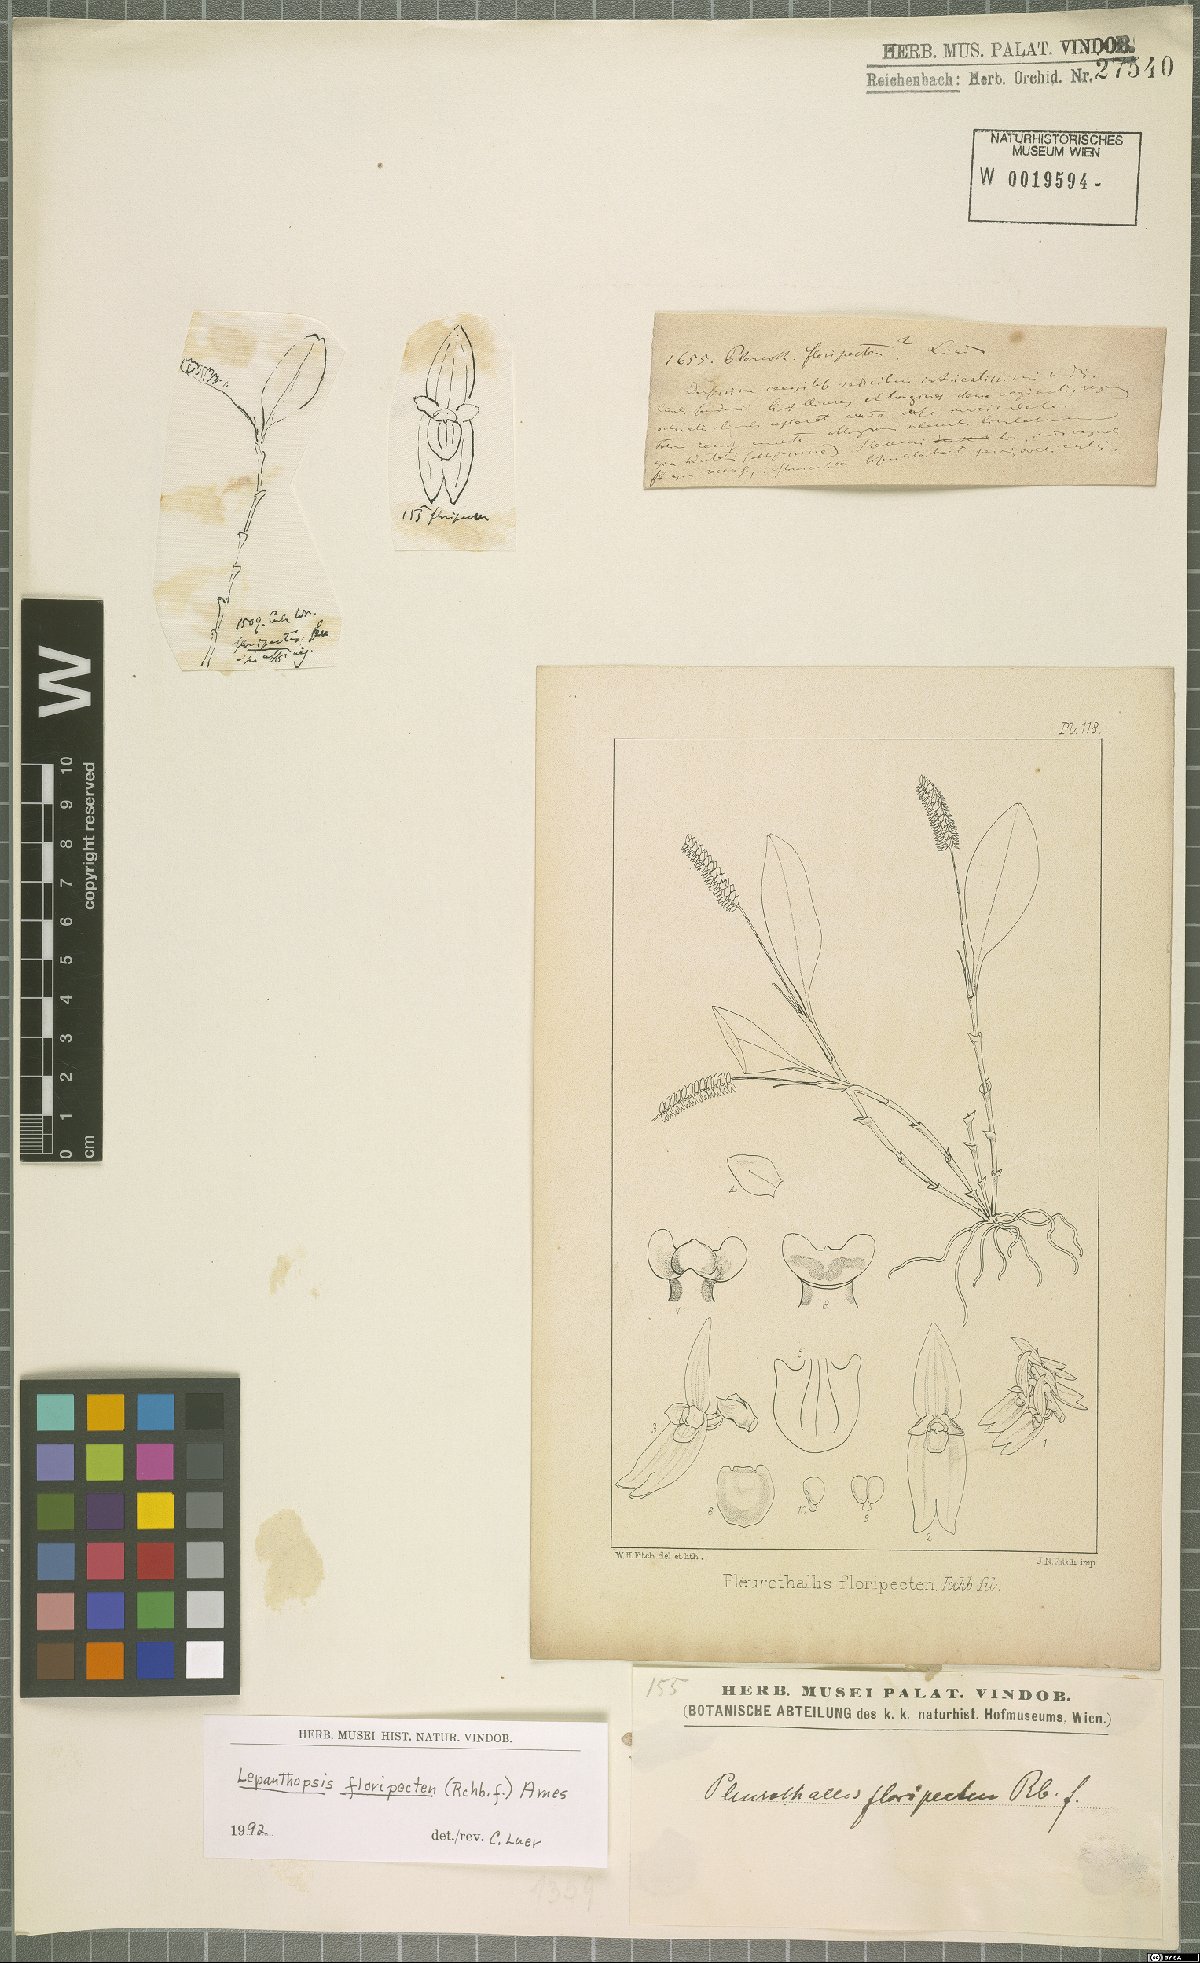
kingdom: Plantae
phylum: Tracheophyta
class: Liliopsida
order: Asparagales
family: Orchidaceae
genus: Lepanthopsis
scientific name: Lepanthopsis floripecten
